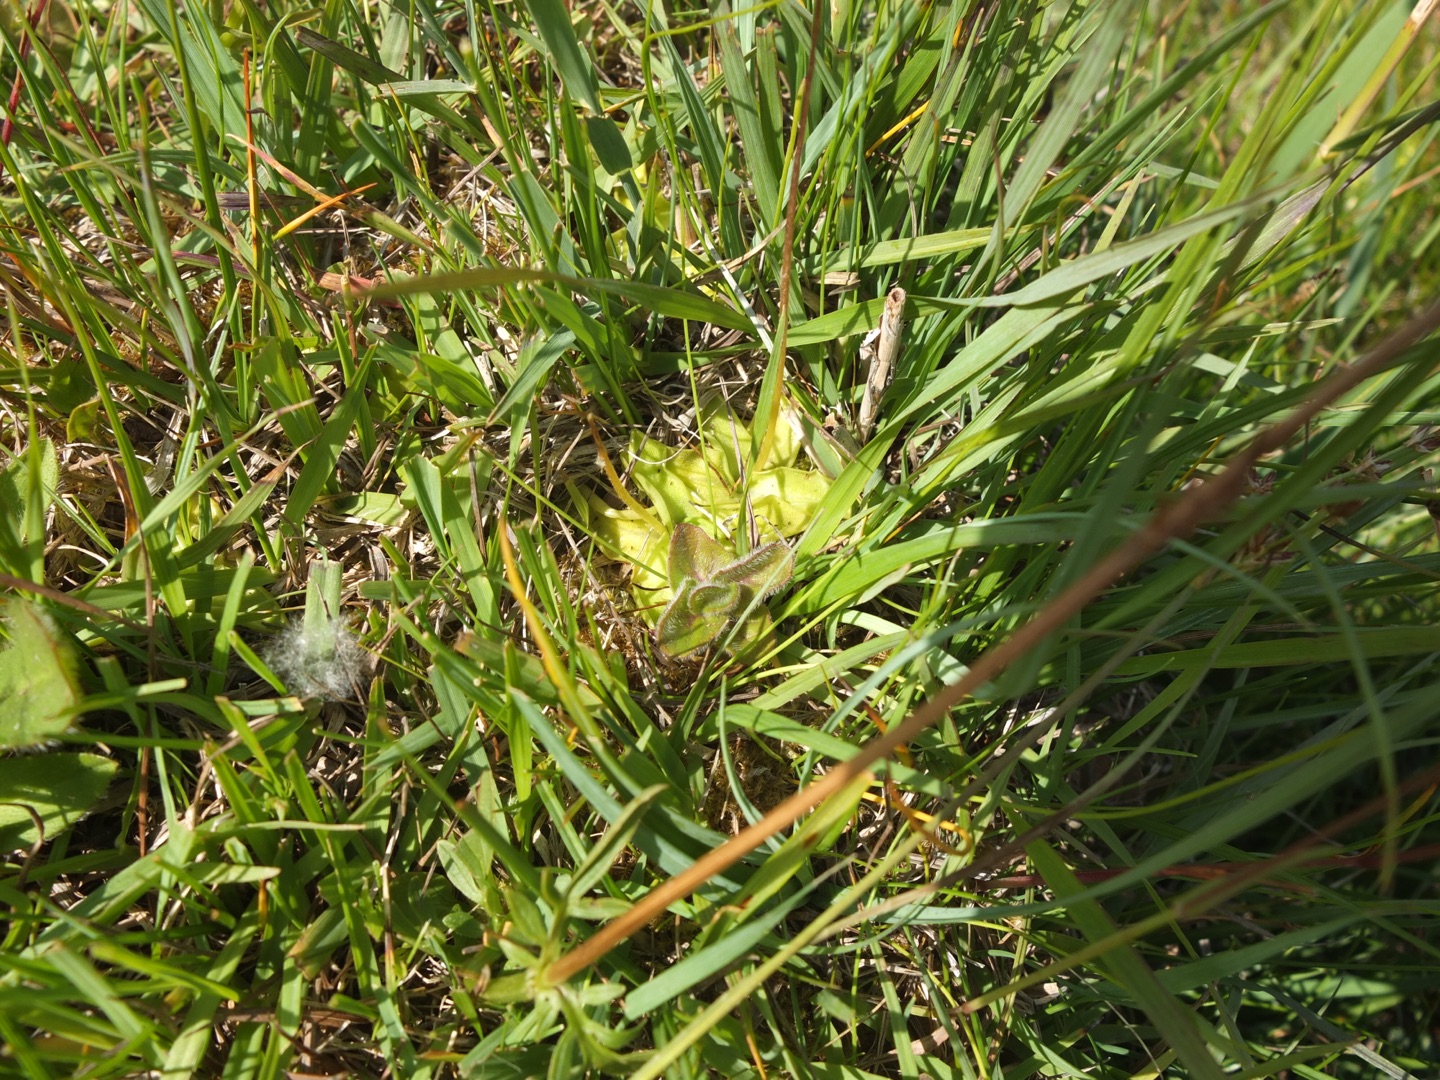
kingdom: Plantae
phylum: Tracheophyta
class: Magnoliopsida
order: Lamiales
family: Lentibulariaceae
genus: Pinguicula
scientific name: Pinguicula vulgaris
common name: Vibefedt
